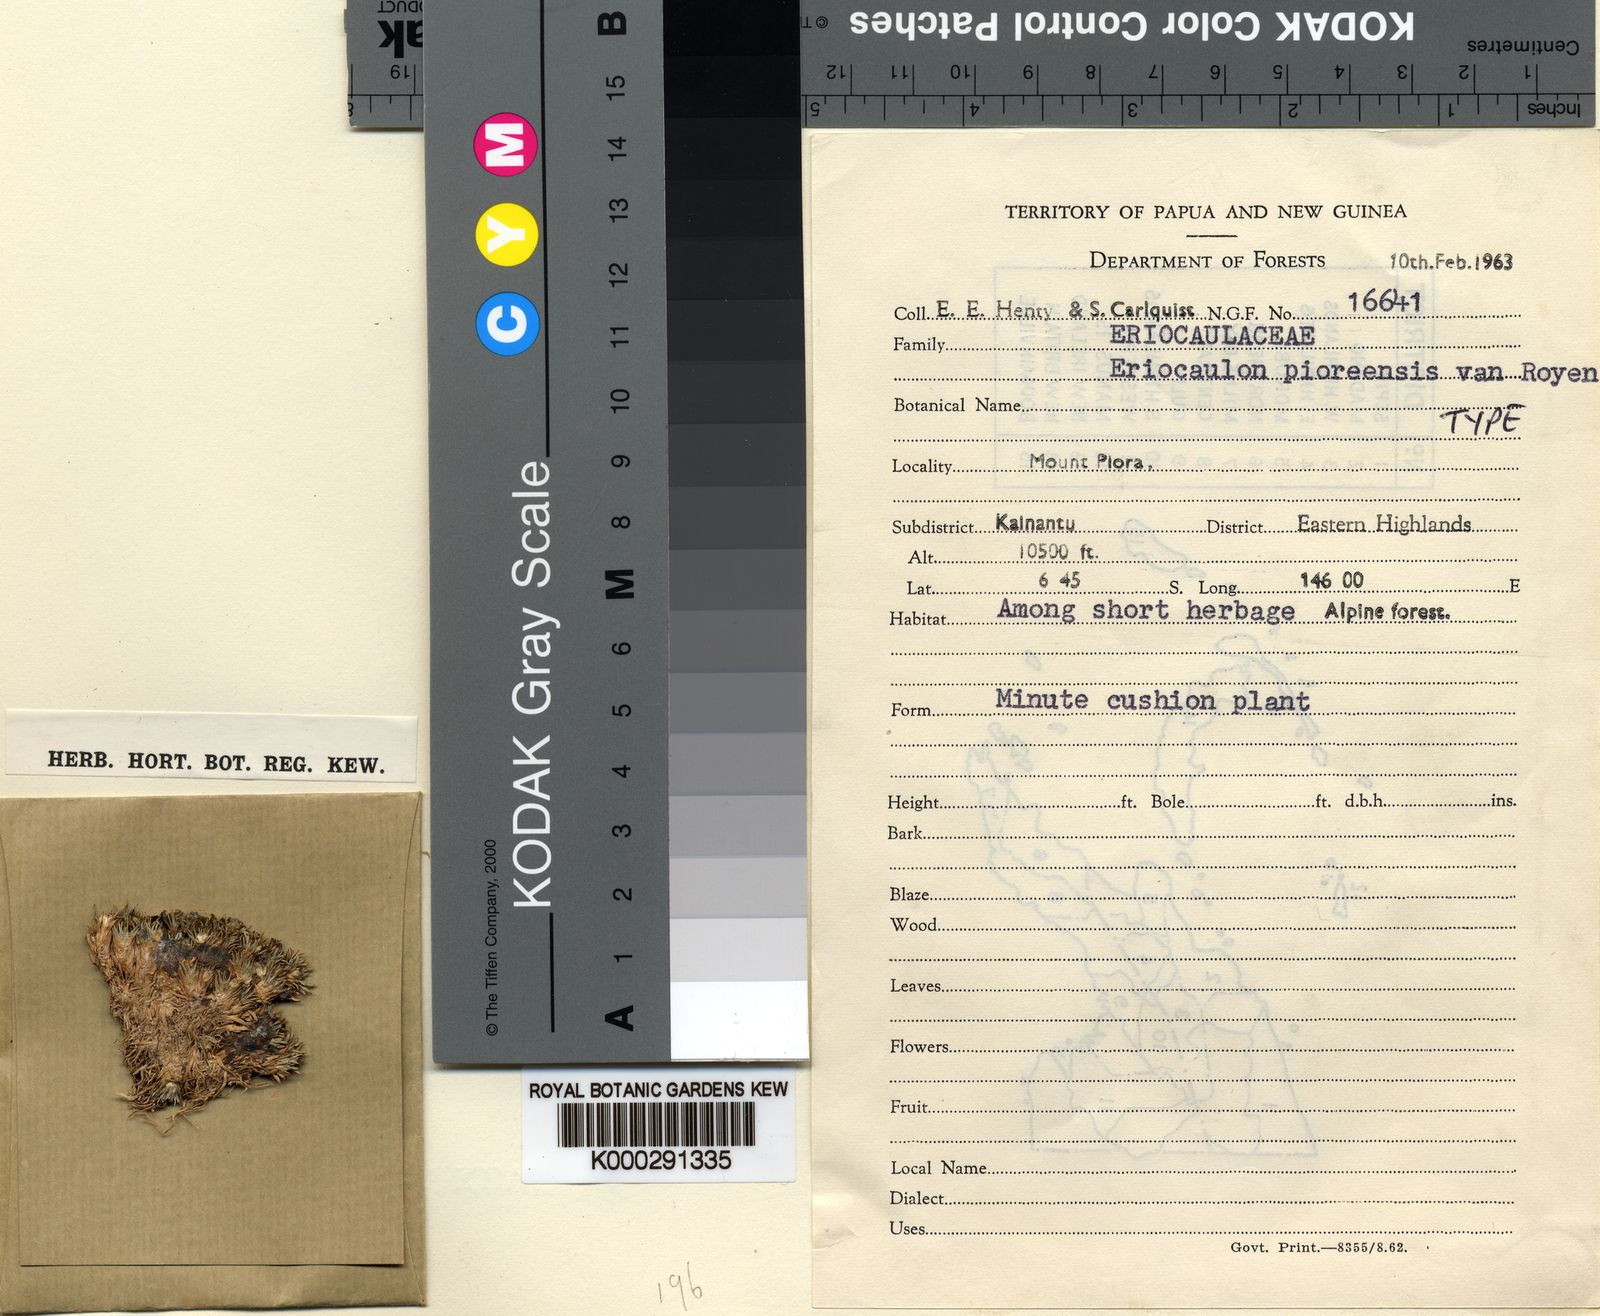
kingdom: Plantae
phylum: Tracheophyta
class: Liliopsida
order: Poales
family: Eriocaulaceae
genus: Eriocaulon
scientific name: Eriocaulon pioraense
